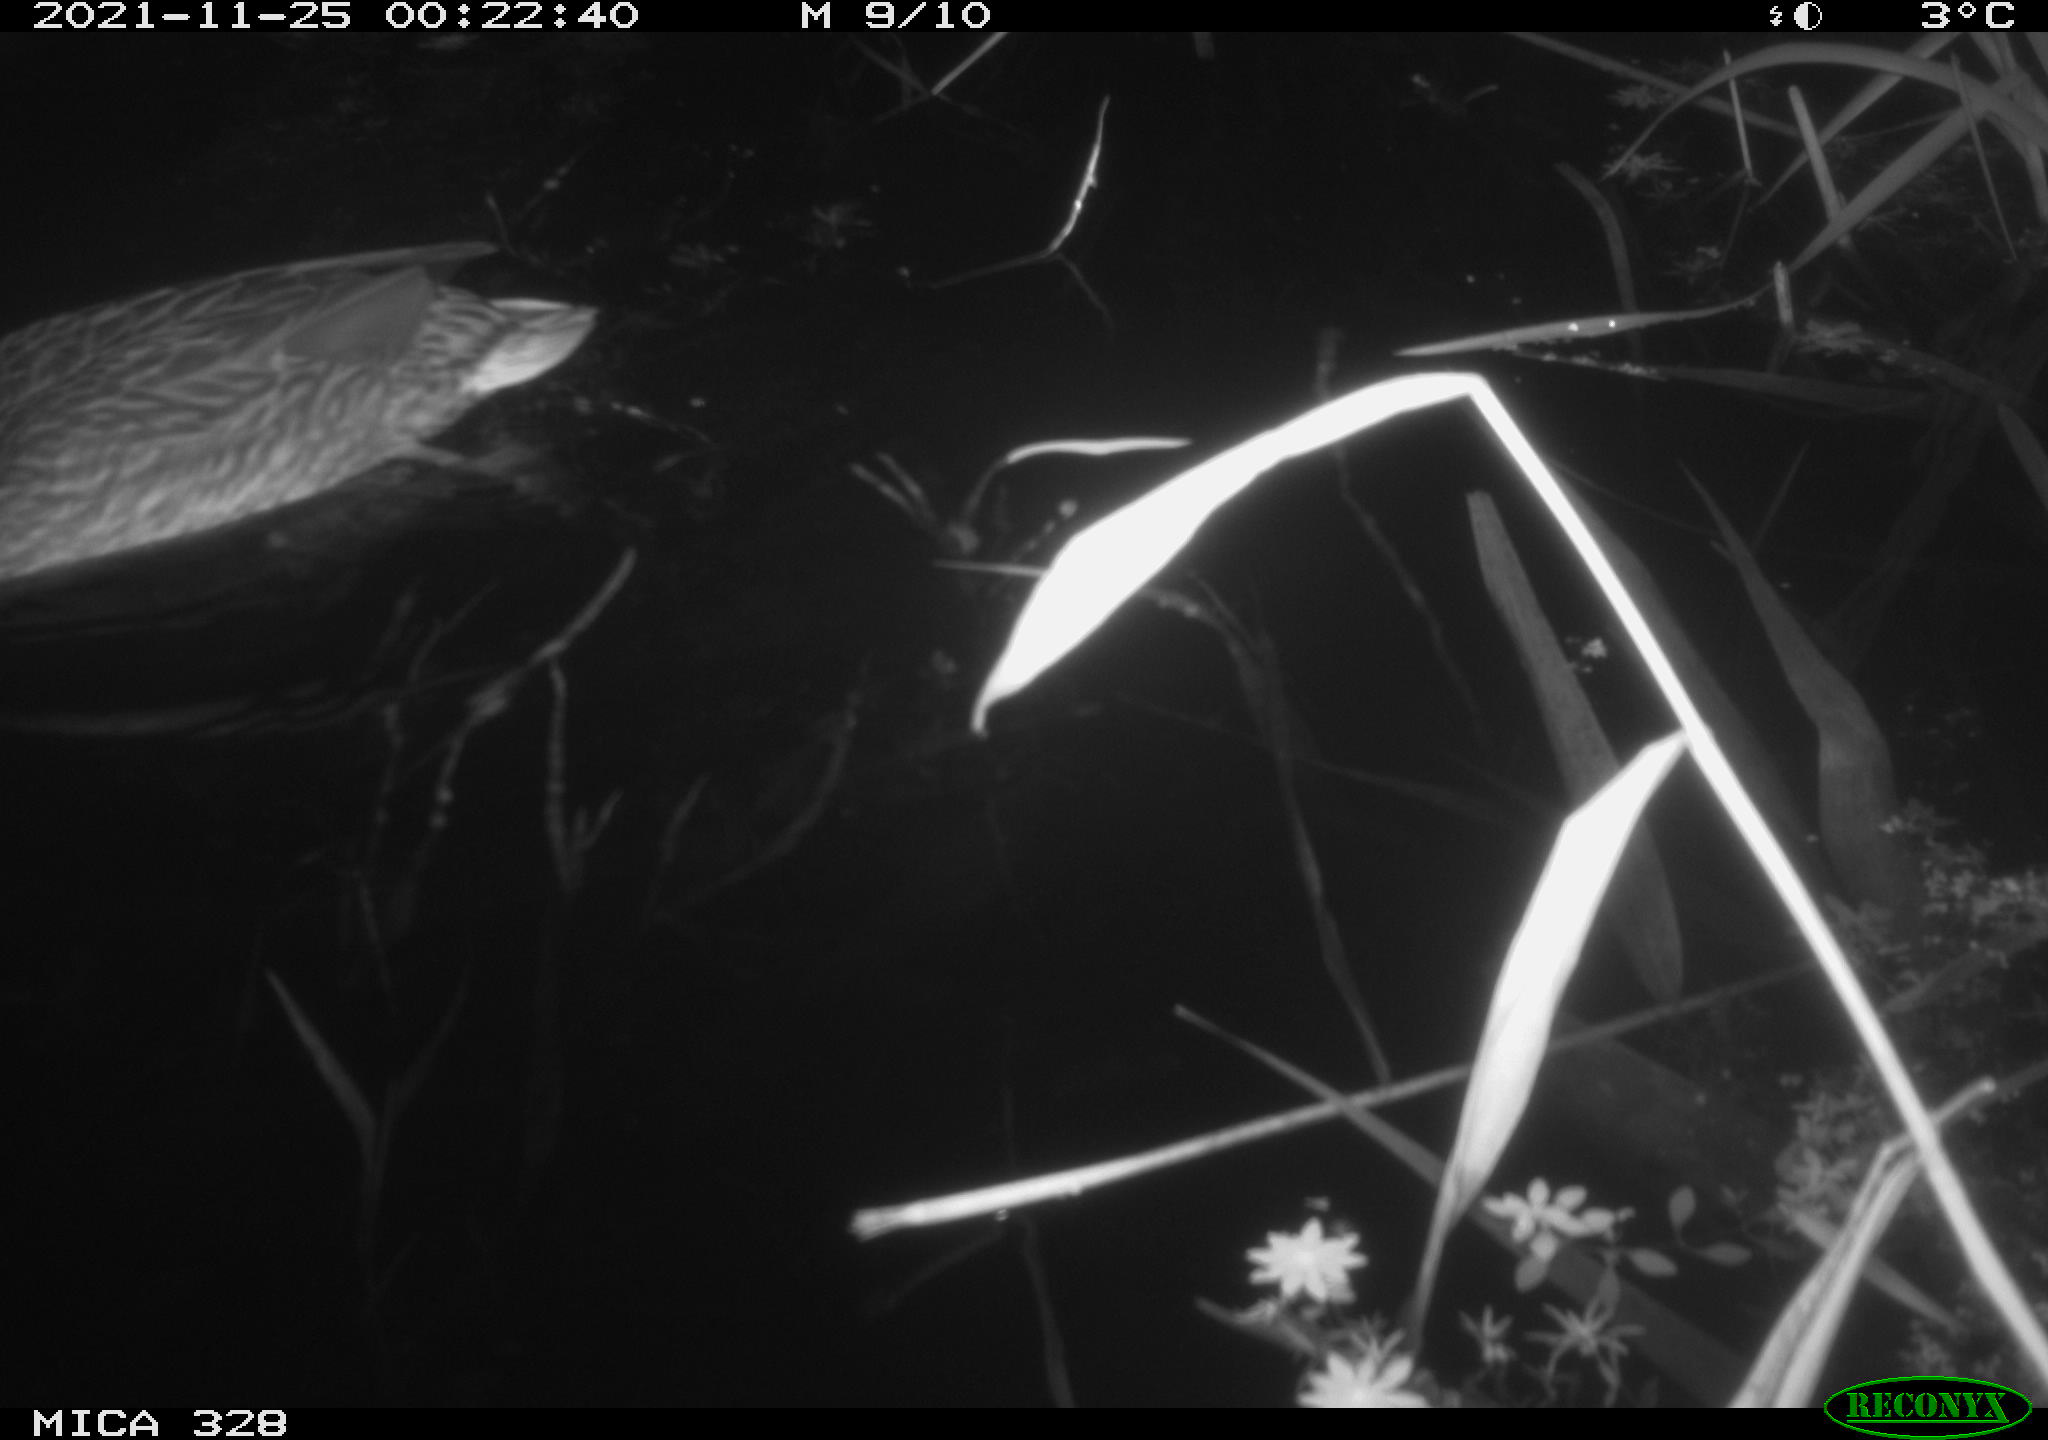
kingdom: Animalia
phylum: Chordata
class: Aves
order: Anseriformes
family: Anatidae
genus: Anas
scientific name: Anas platyrhynchos
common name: Mallard
